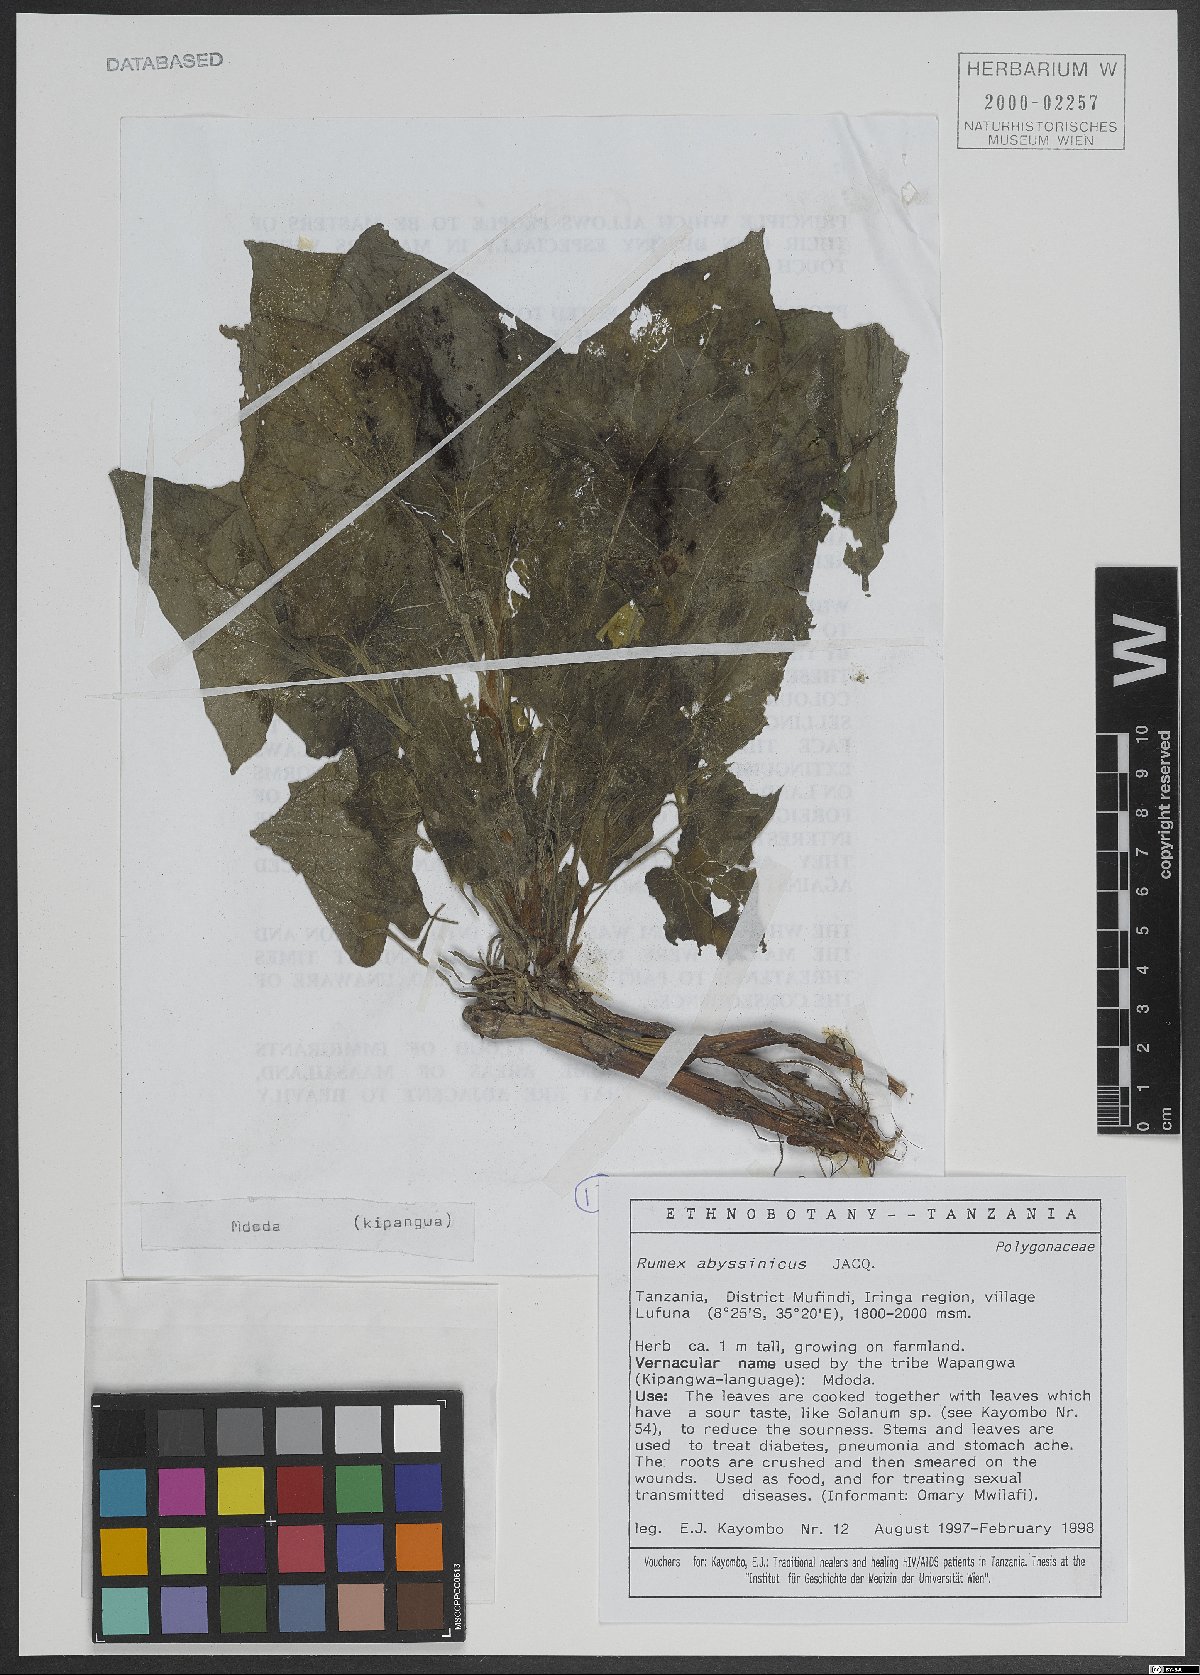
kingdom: Plantae
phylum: Tracheophyta
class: Magnoliopsida
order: Caryophyllales
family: Polygonaceae
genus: Rumex
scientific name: Rumex abyssinicus
